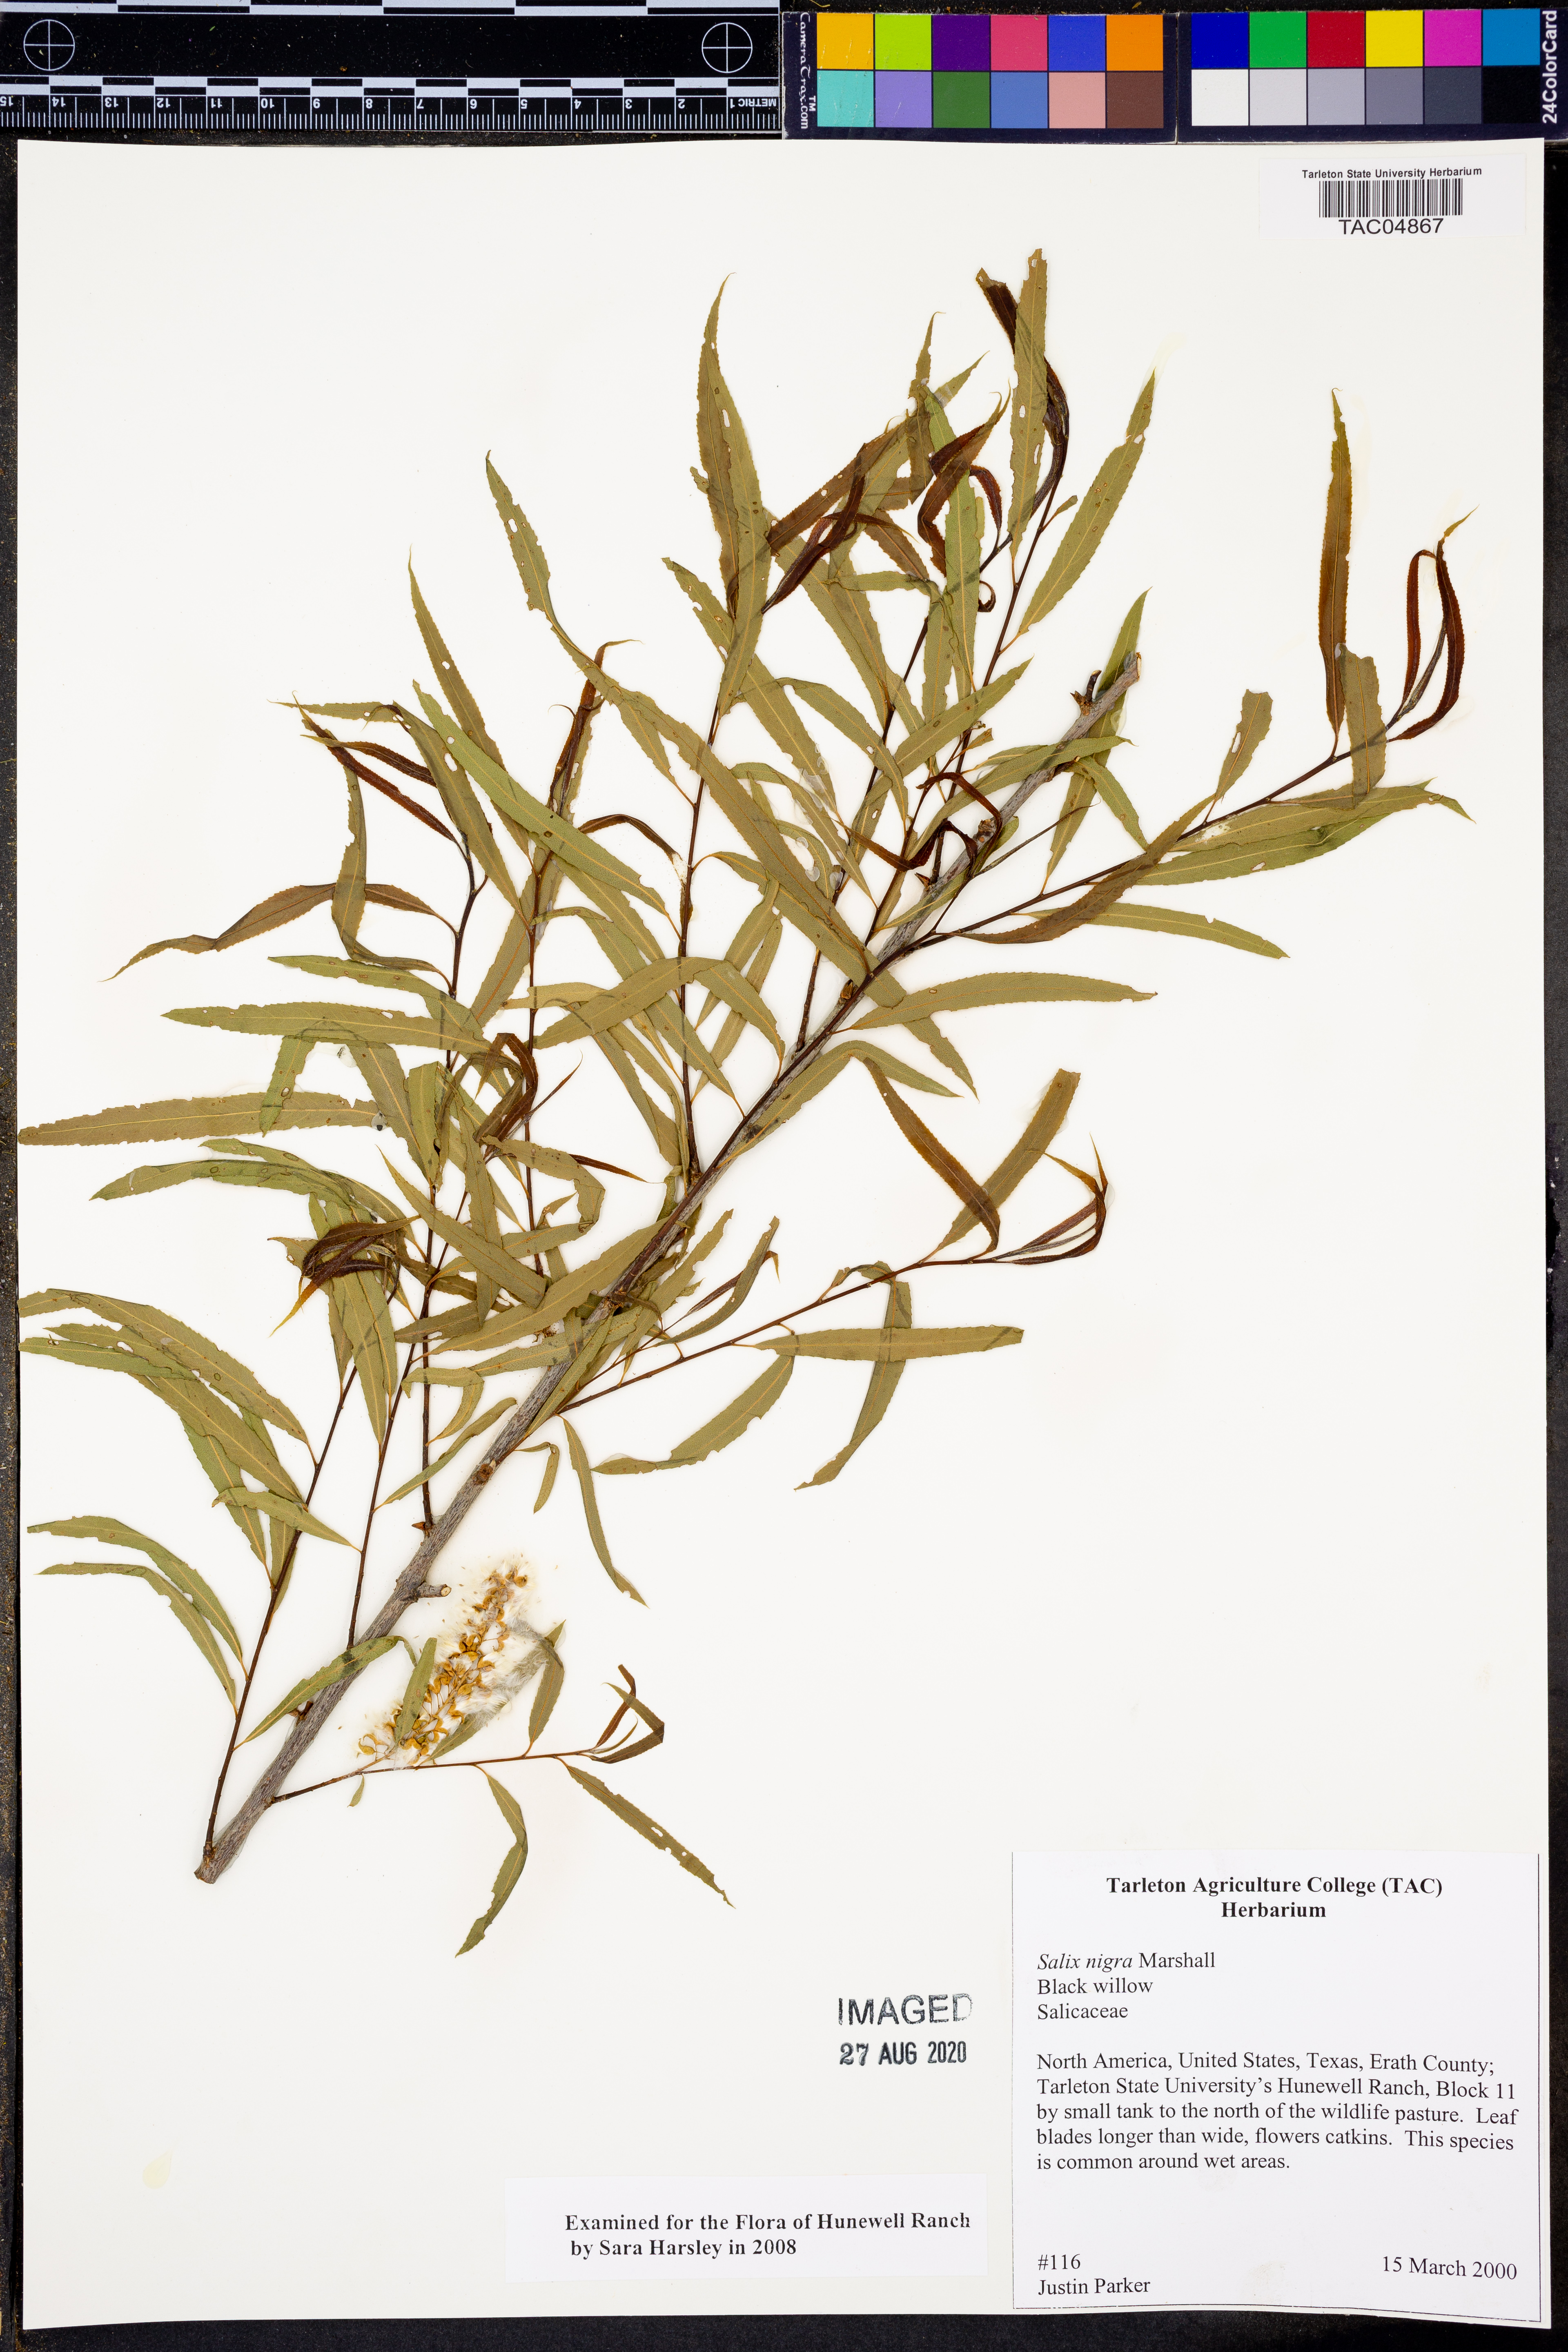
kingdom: Plantae
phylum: Tracheophyta
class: Magnoliopsida
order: Malpighiales
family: Salicaceae
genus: Salix
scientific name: Salix nigra
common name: Black willow
